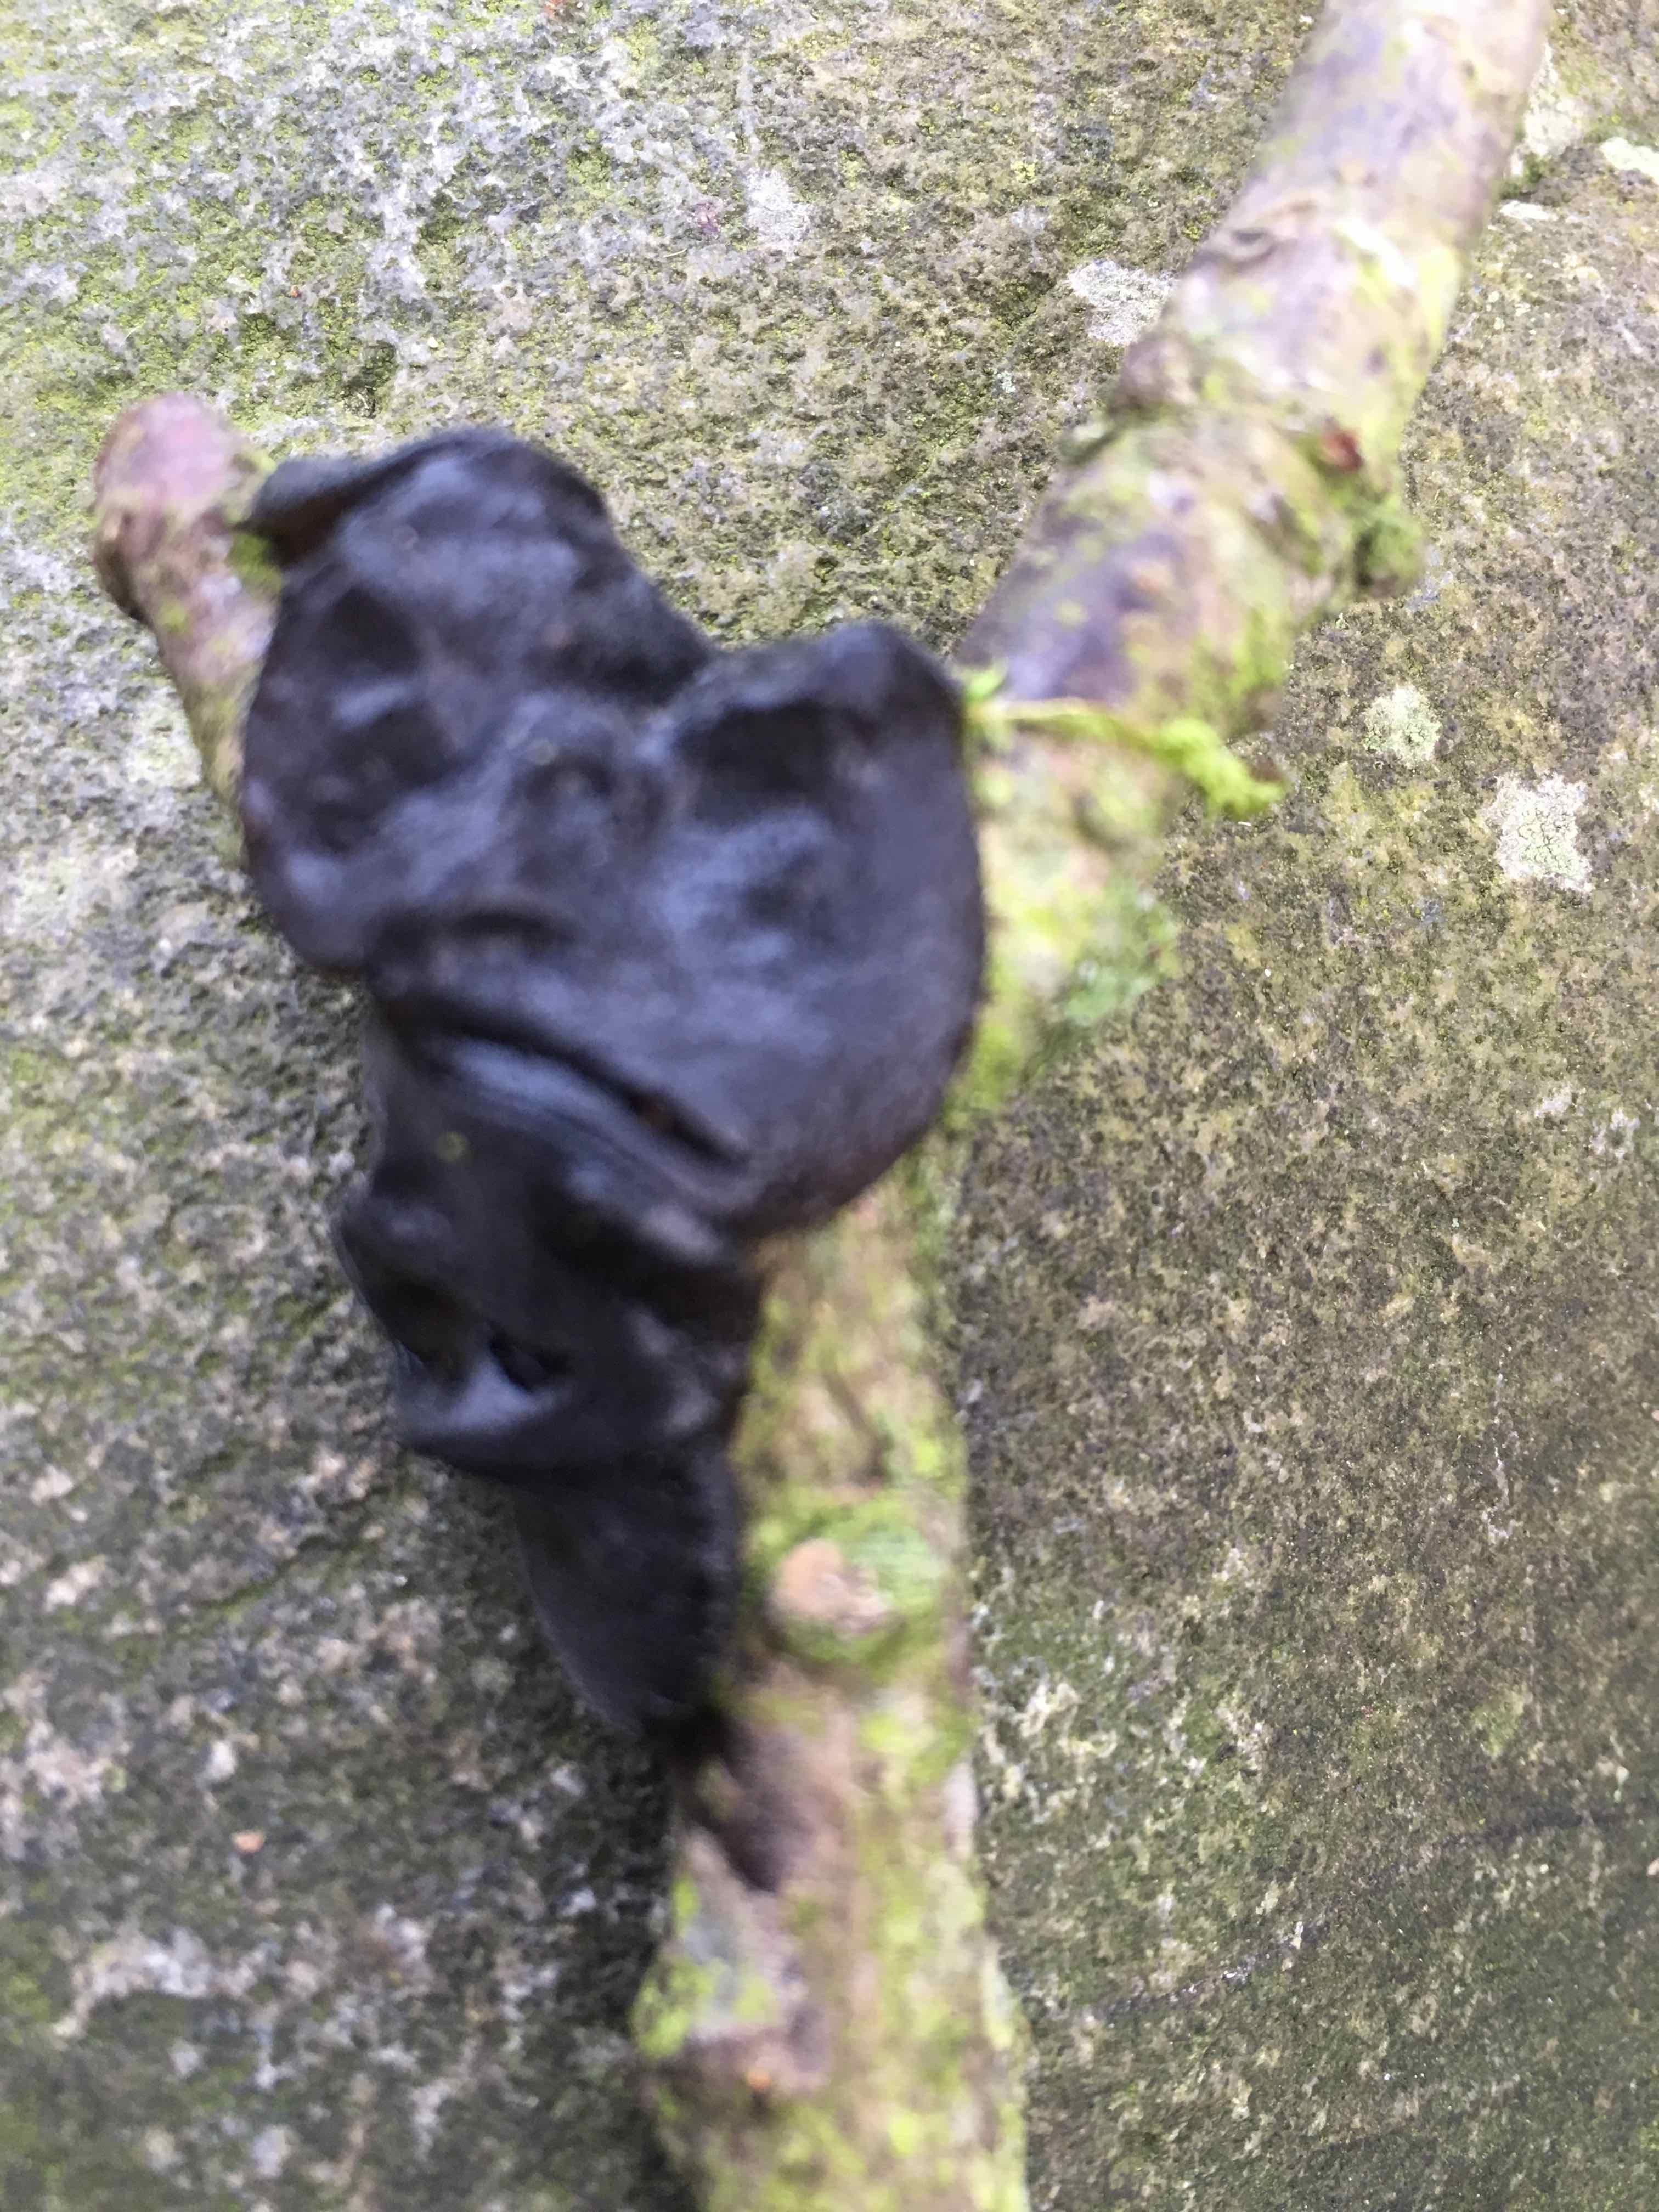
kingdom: Fungi
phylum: Basidiomycota
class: Agaricomycetes
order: Auriculariales
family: Auriculariaceae
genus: Exidia
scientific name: Exidia glandulosa
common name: ege-bævretop
